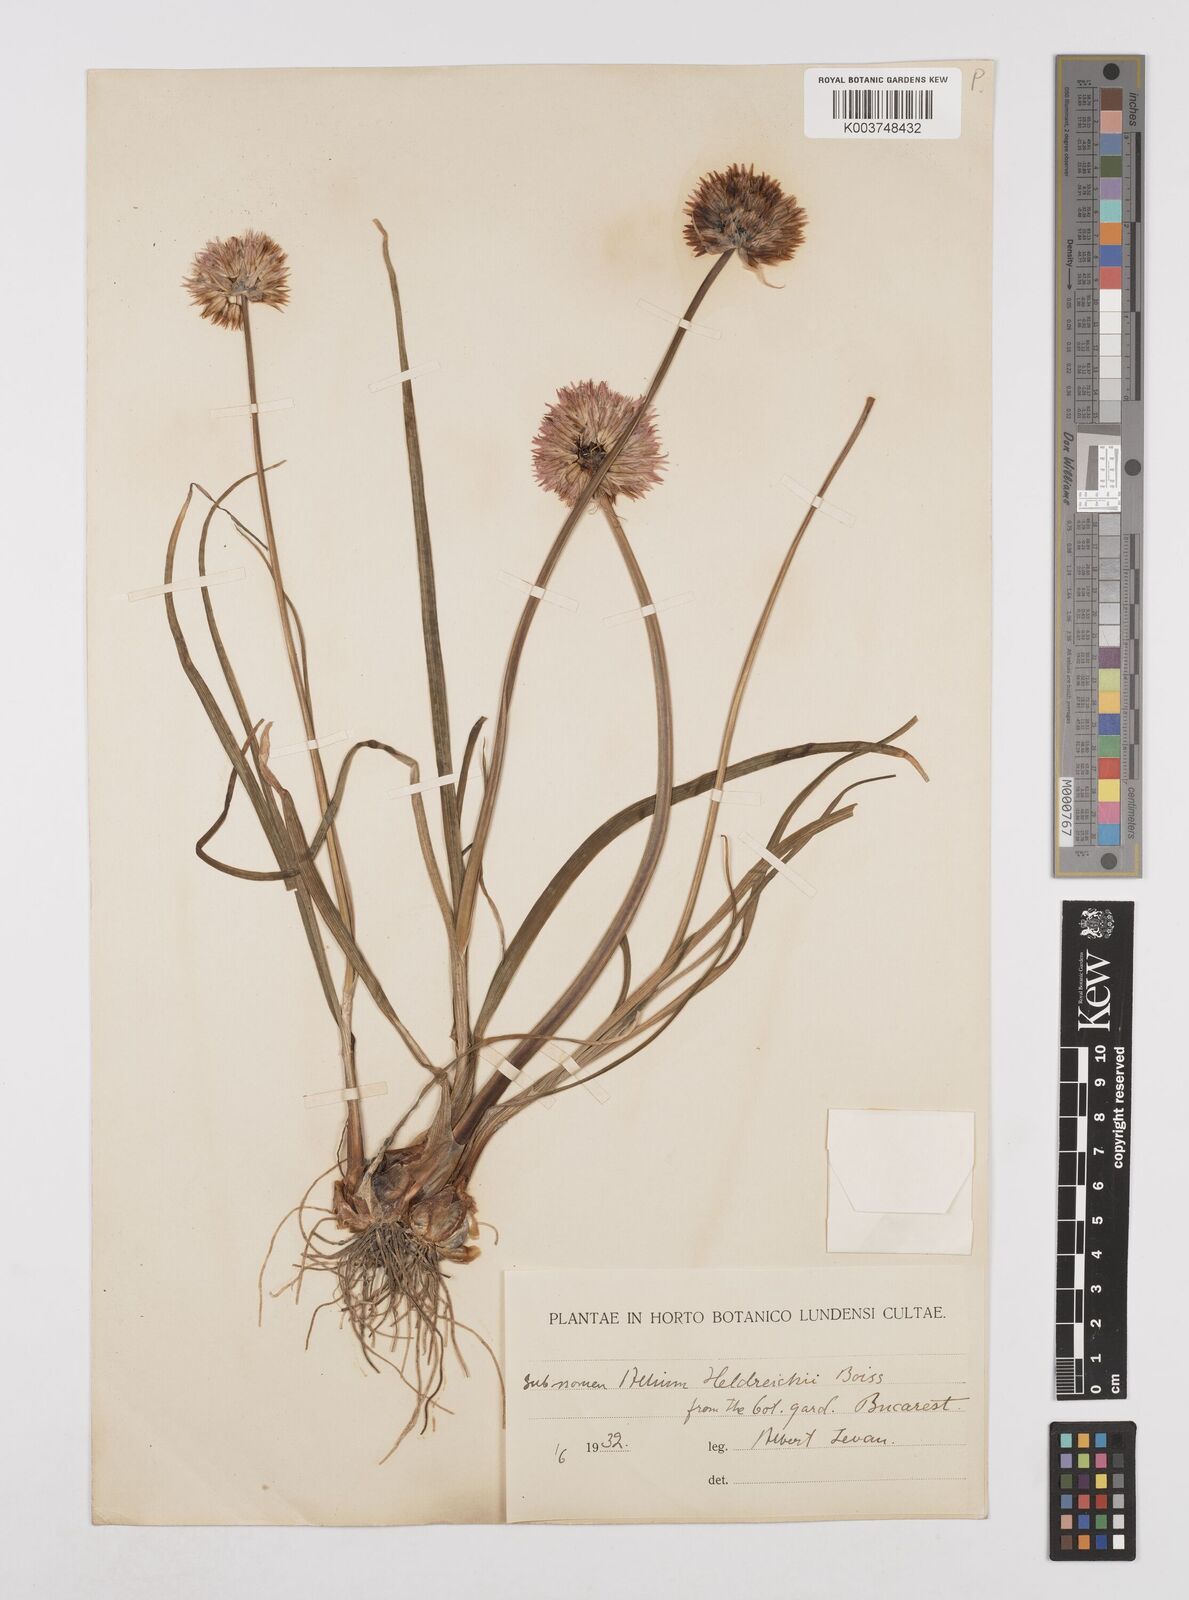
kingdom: Plantae
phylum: Tracheophyta
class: Liliopsida
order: Asparagales
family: Amaryllidaceae
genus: Allium
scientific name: Allium heldreichii
